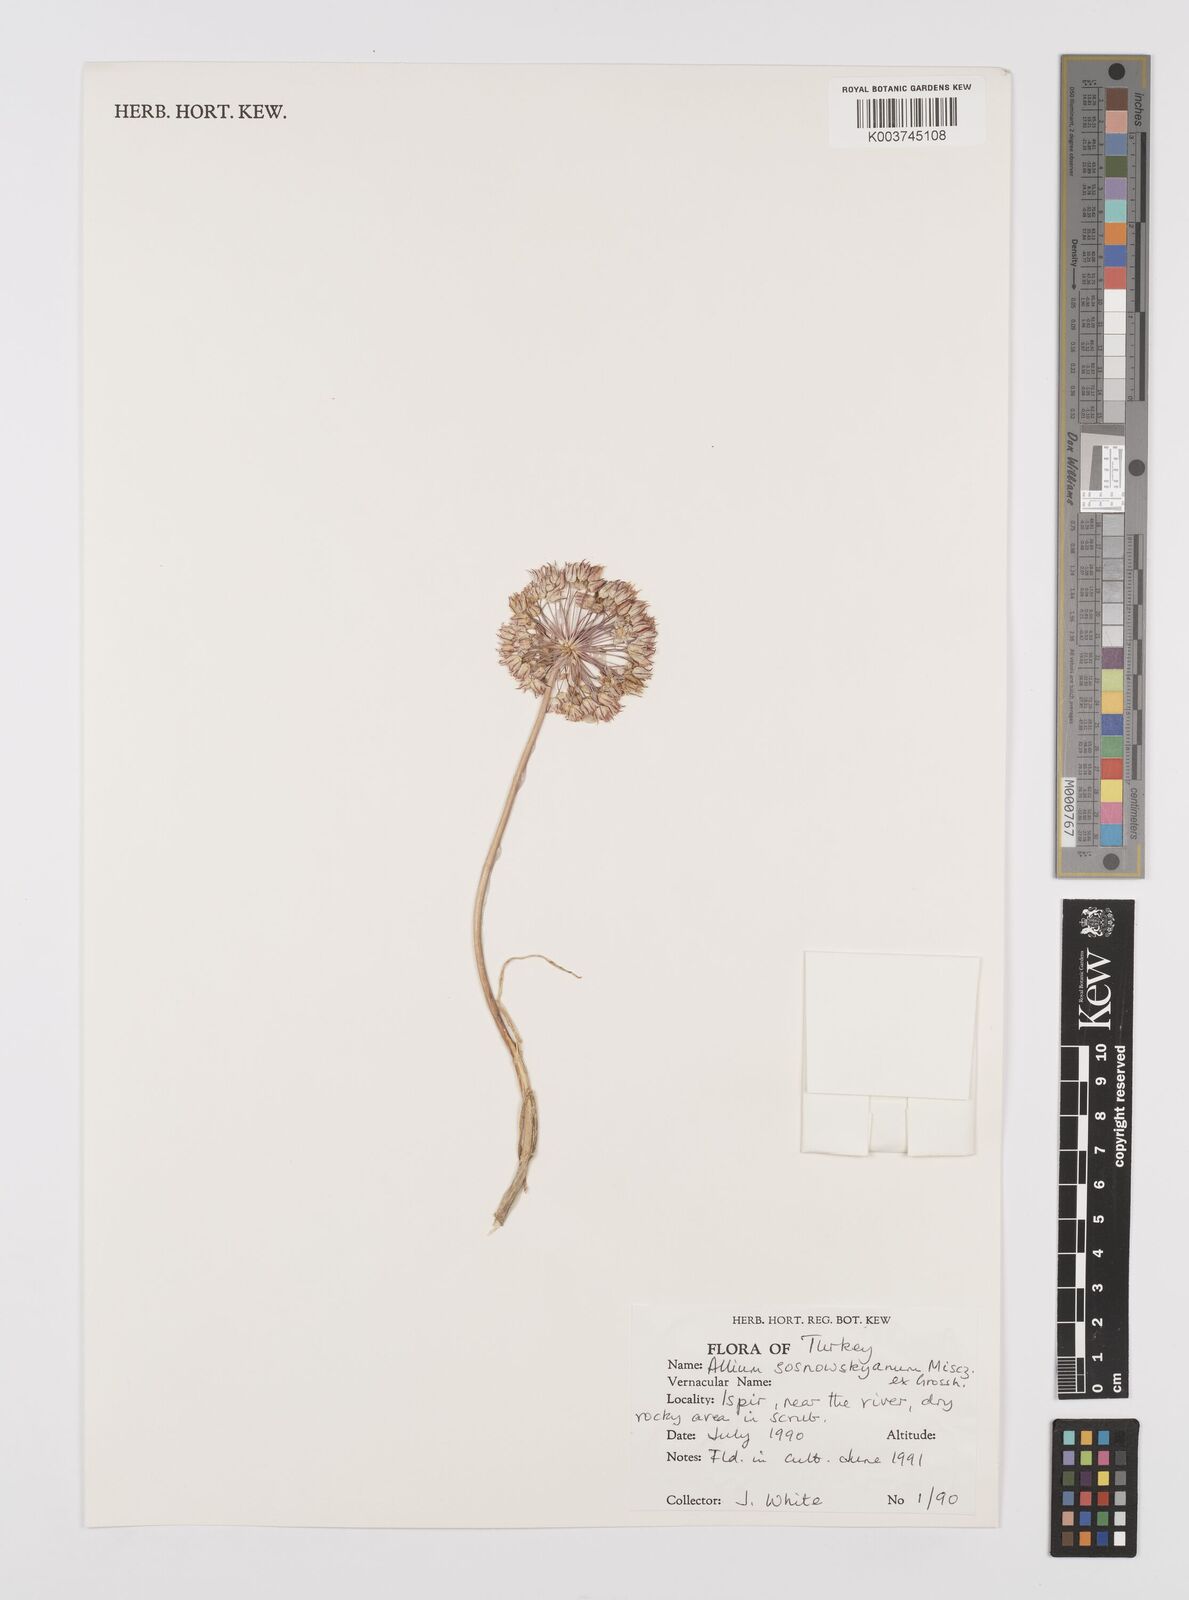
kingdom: Plantae
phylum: Tracheophyta
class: Liliopsida
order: Asparagales
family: Amaryllidaceae
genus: Allium
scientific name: Allium sosnovskyanum
